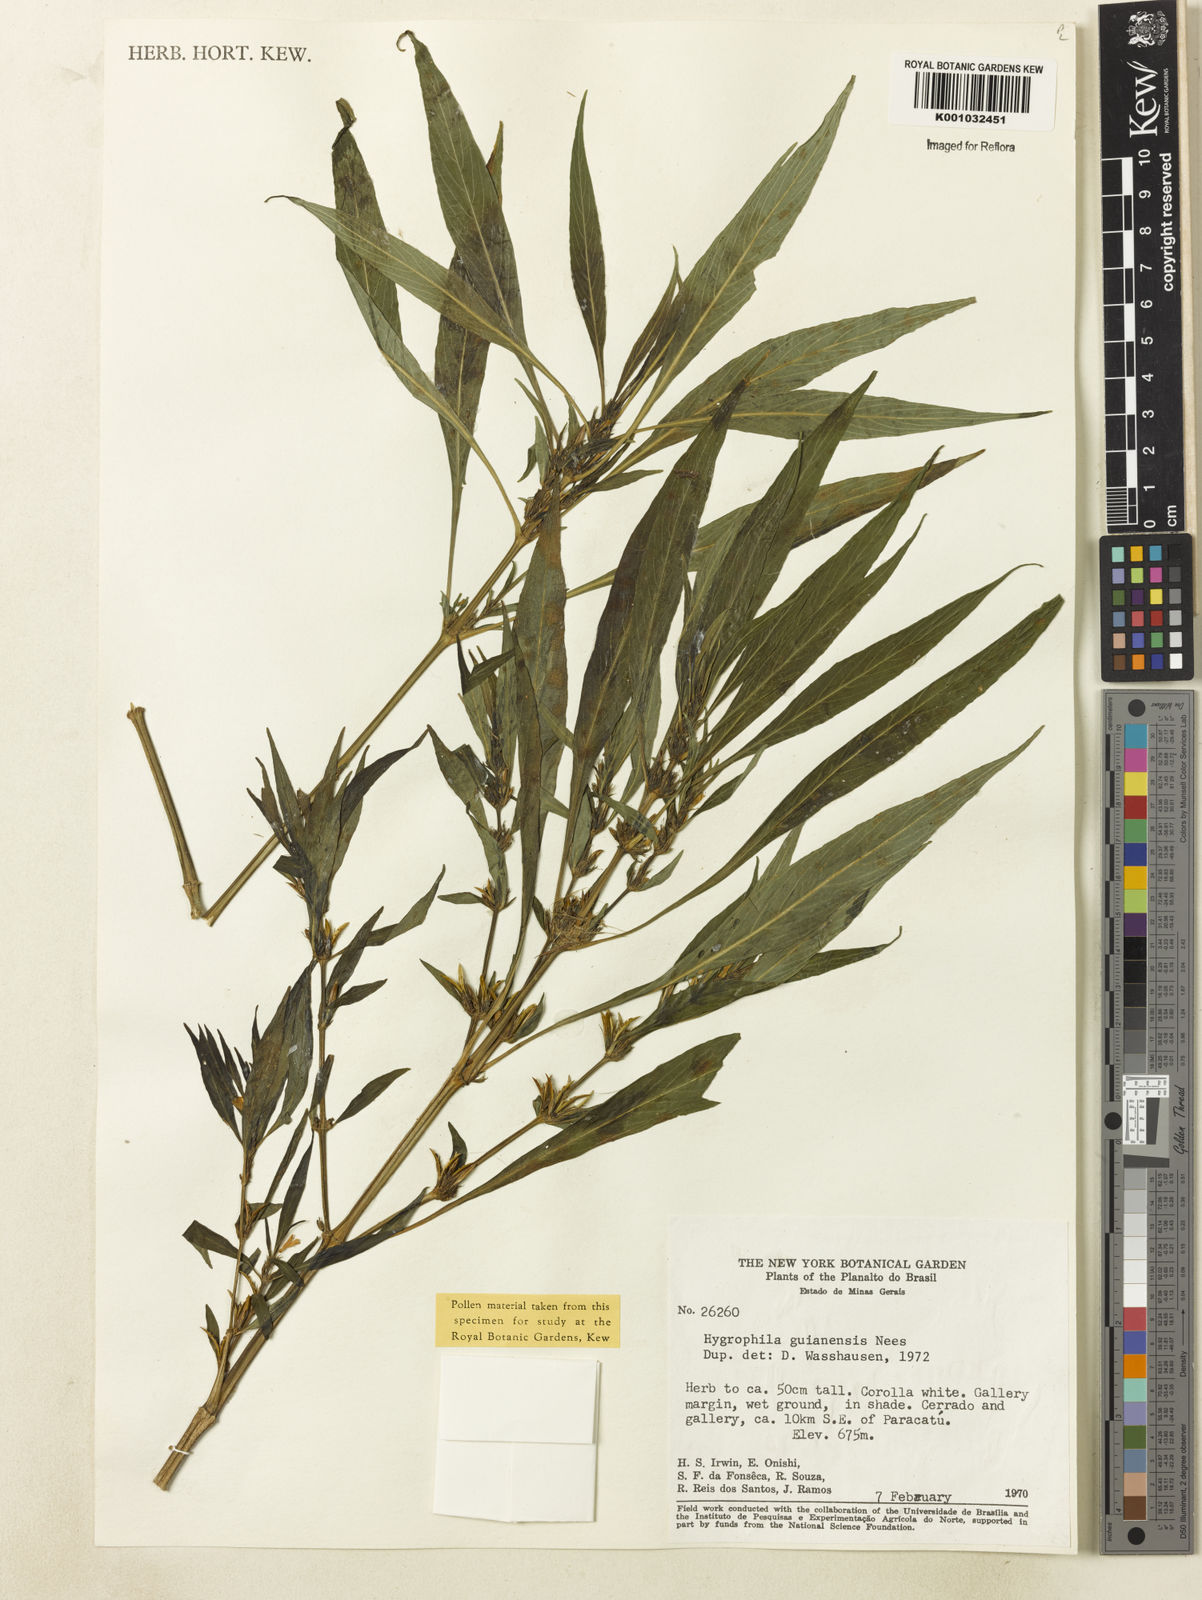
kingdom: Plantae
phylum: Tracheophyta
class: Magnoliopsida
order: Lamiales
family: Acanthaceae
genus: Hygrophila
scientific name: Hygrophila costata
